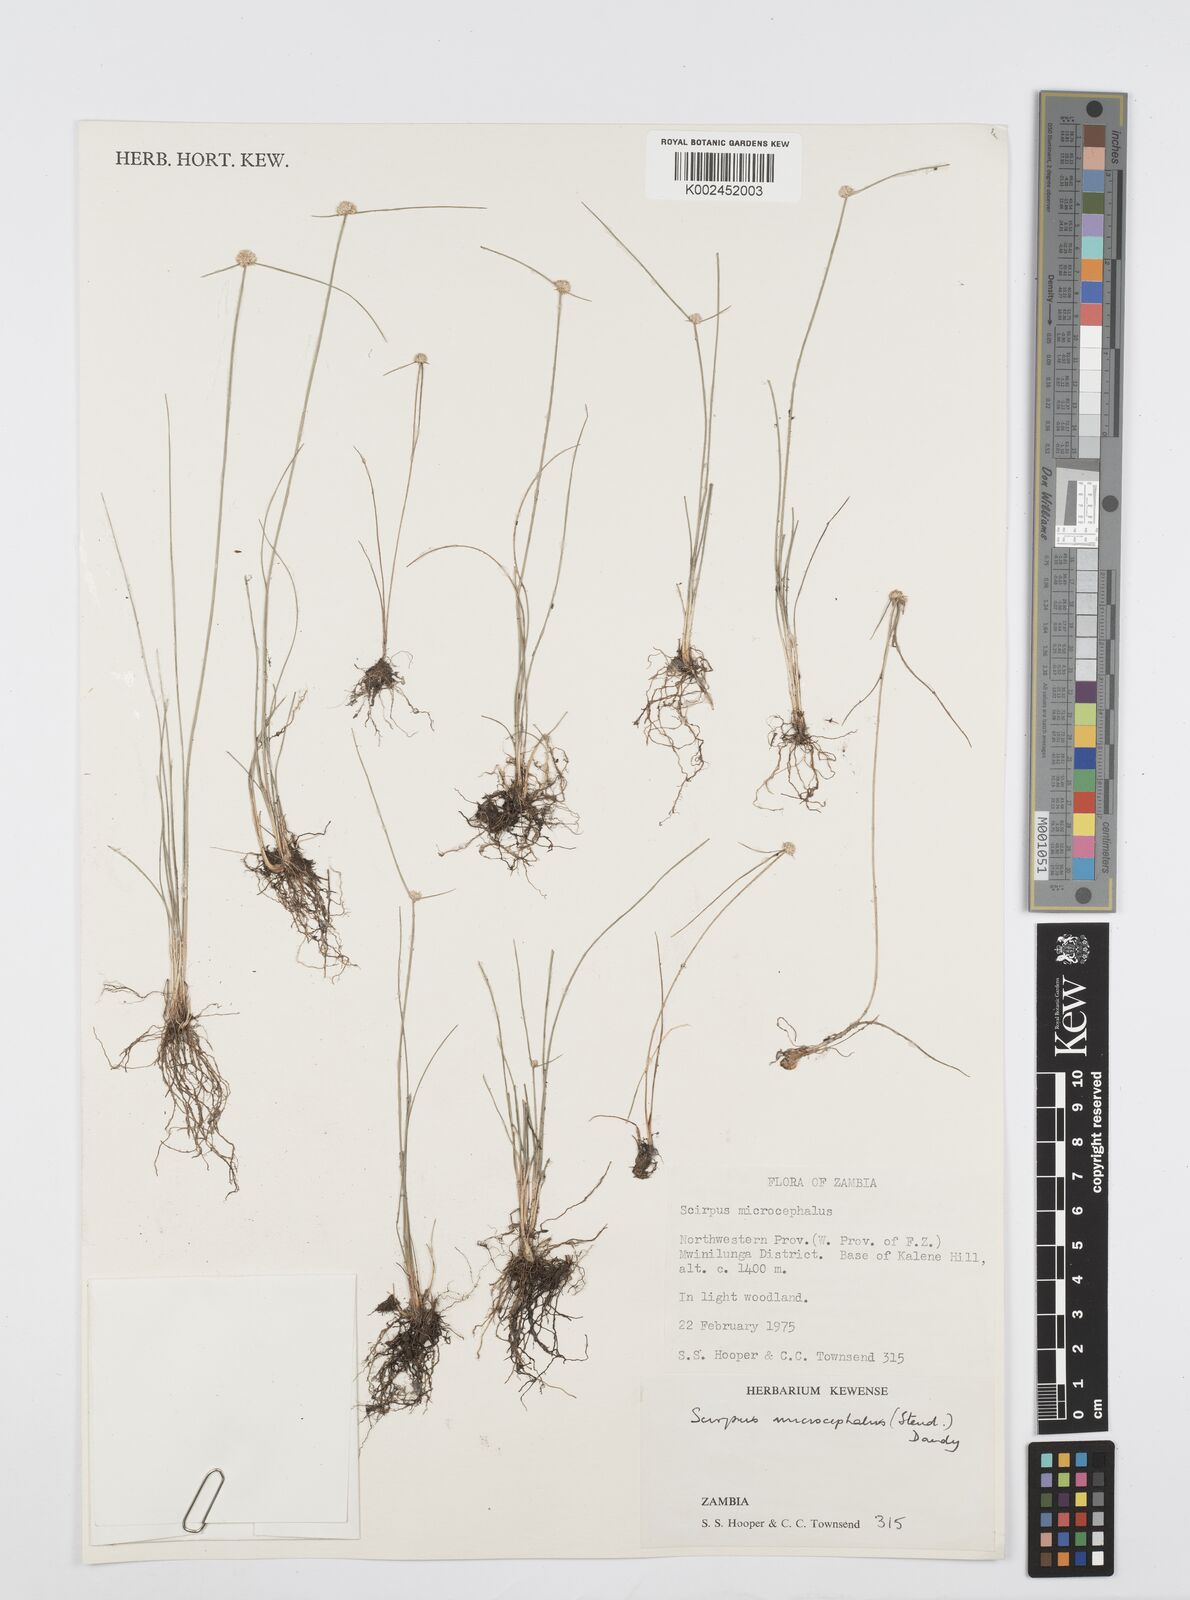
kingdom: Plantae
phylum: Tracheophyta
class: Liliopsida
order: Poales
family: Cyperaceae
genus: Cyperus
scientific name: Cyperus microcephalus
